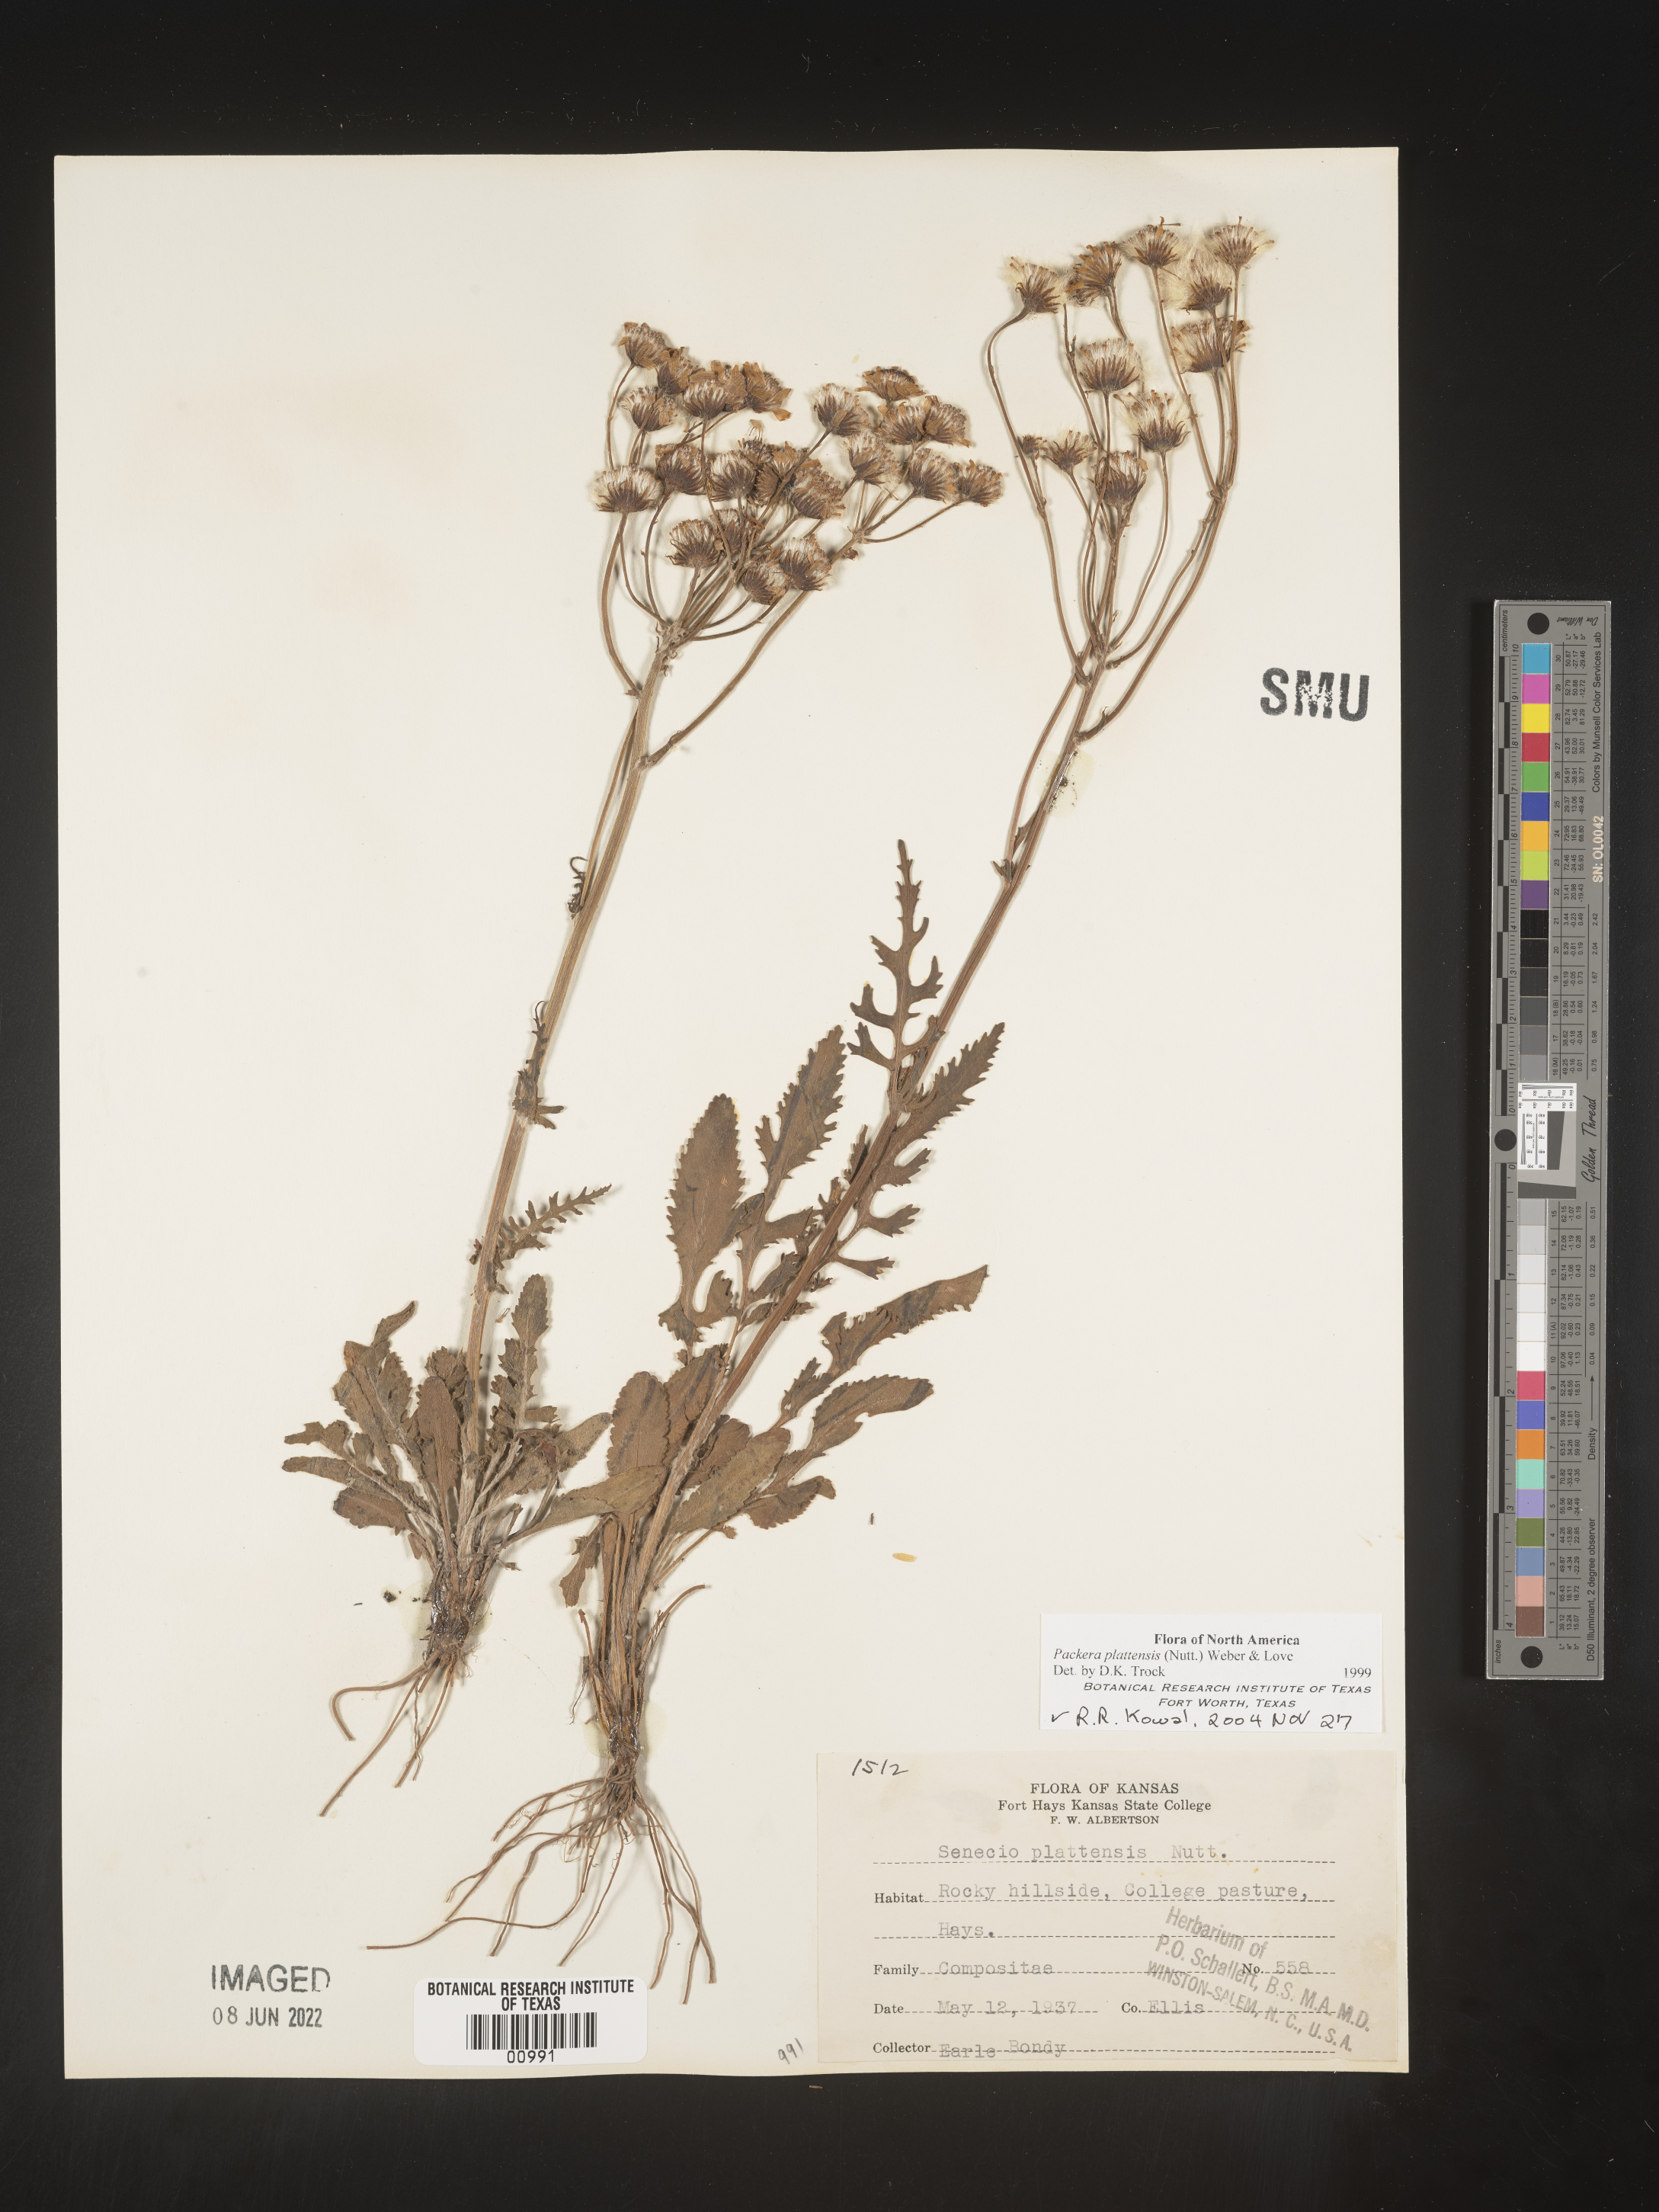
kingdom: Plantae
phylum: Tracheophyta
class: Magnoliopsida
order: Asterales
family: Asteraceae
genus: Packera
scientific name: Packera plattensis
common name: Prairie groundsel
